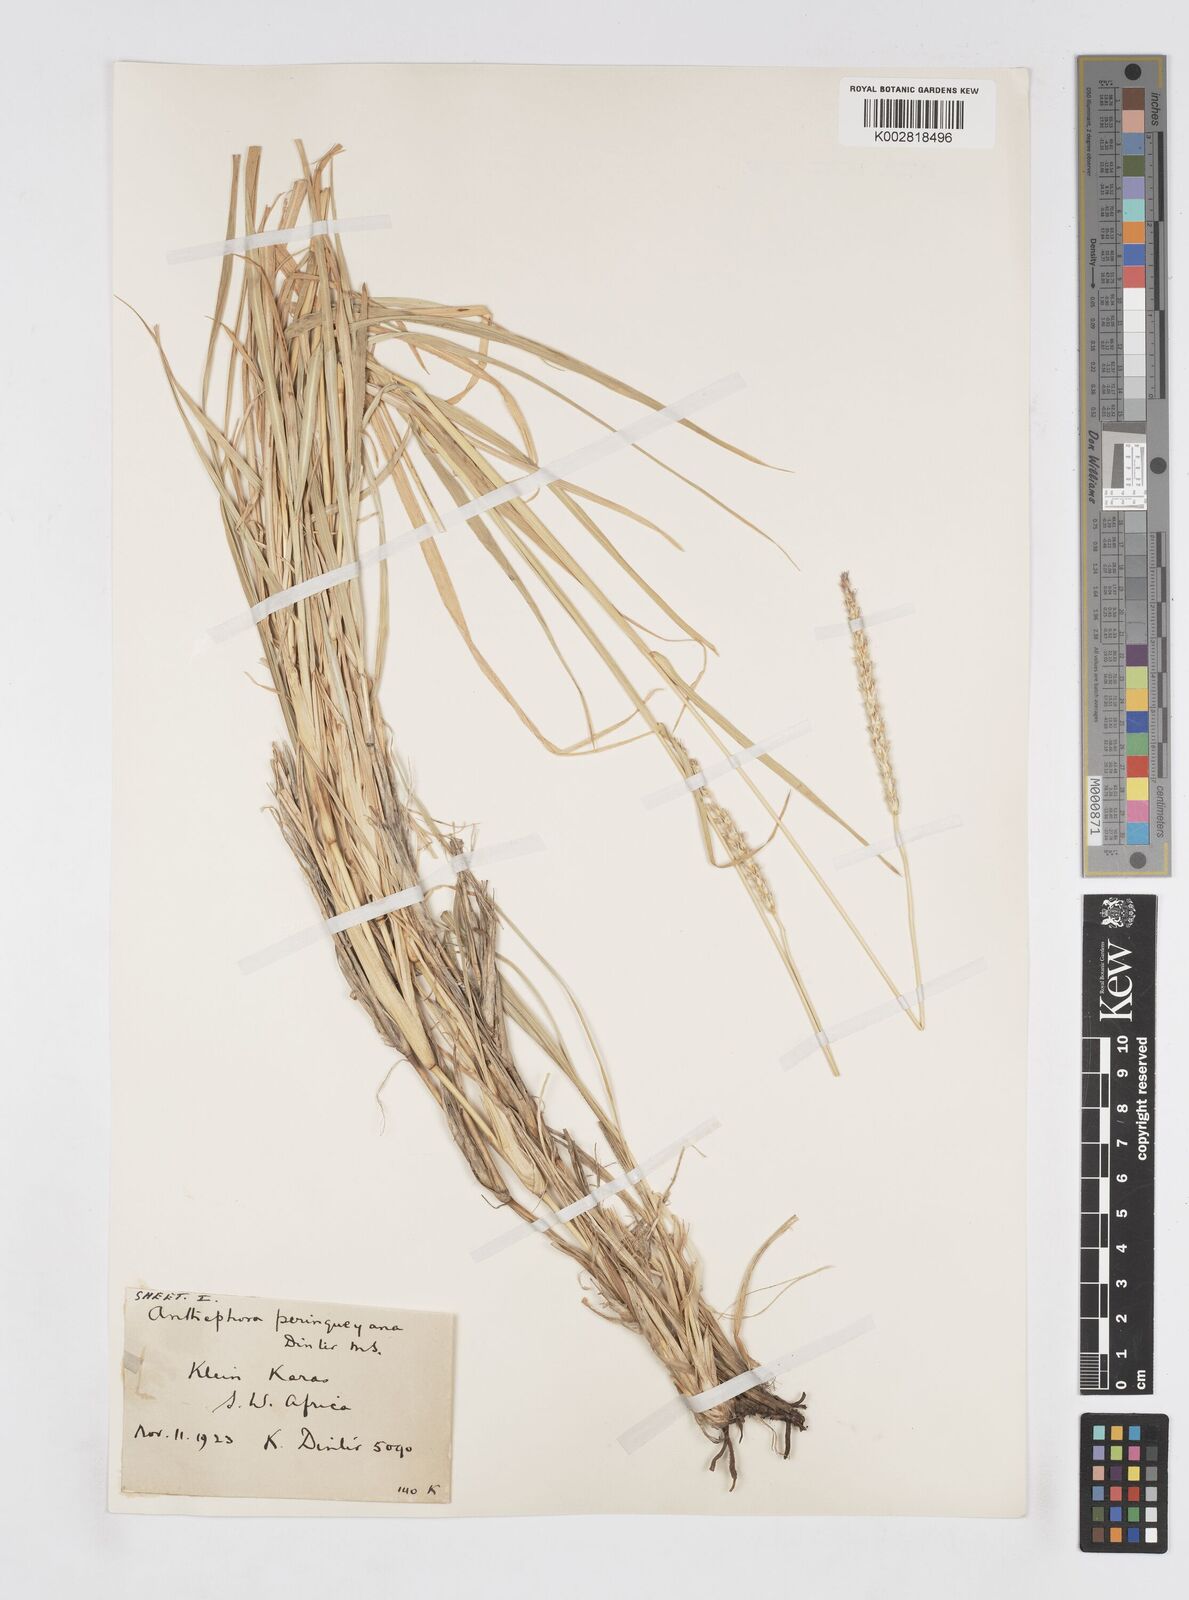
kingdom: Plantae
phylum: Tracheophyta
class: Liliopsida
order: Poales
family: Poaceae
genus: Anthephora
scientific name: Anthephora pubescens
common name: Wool grass
